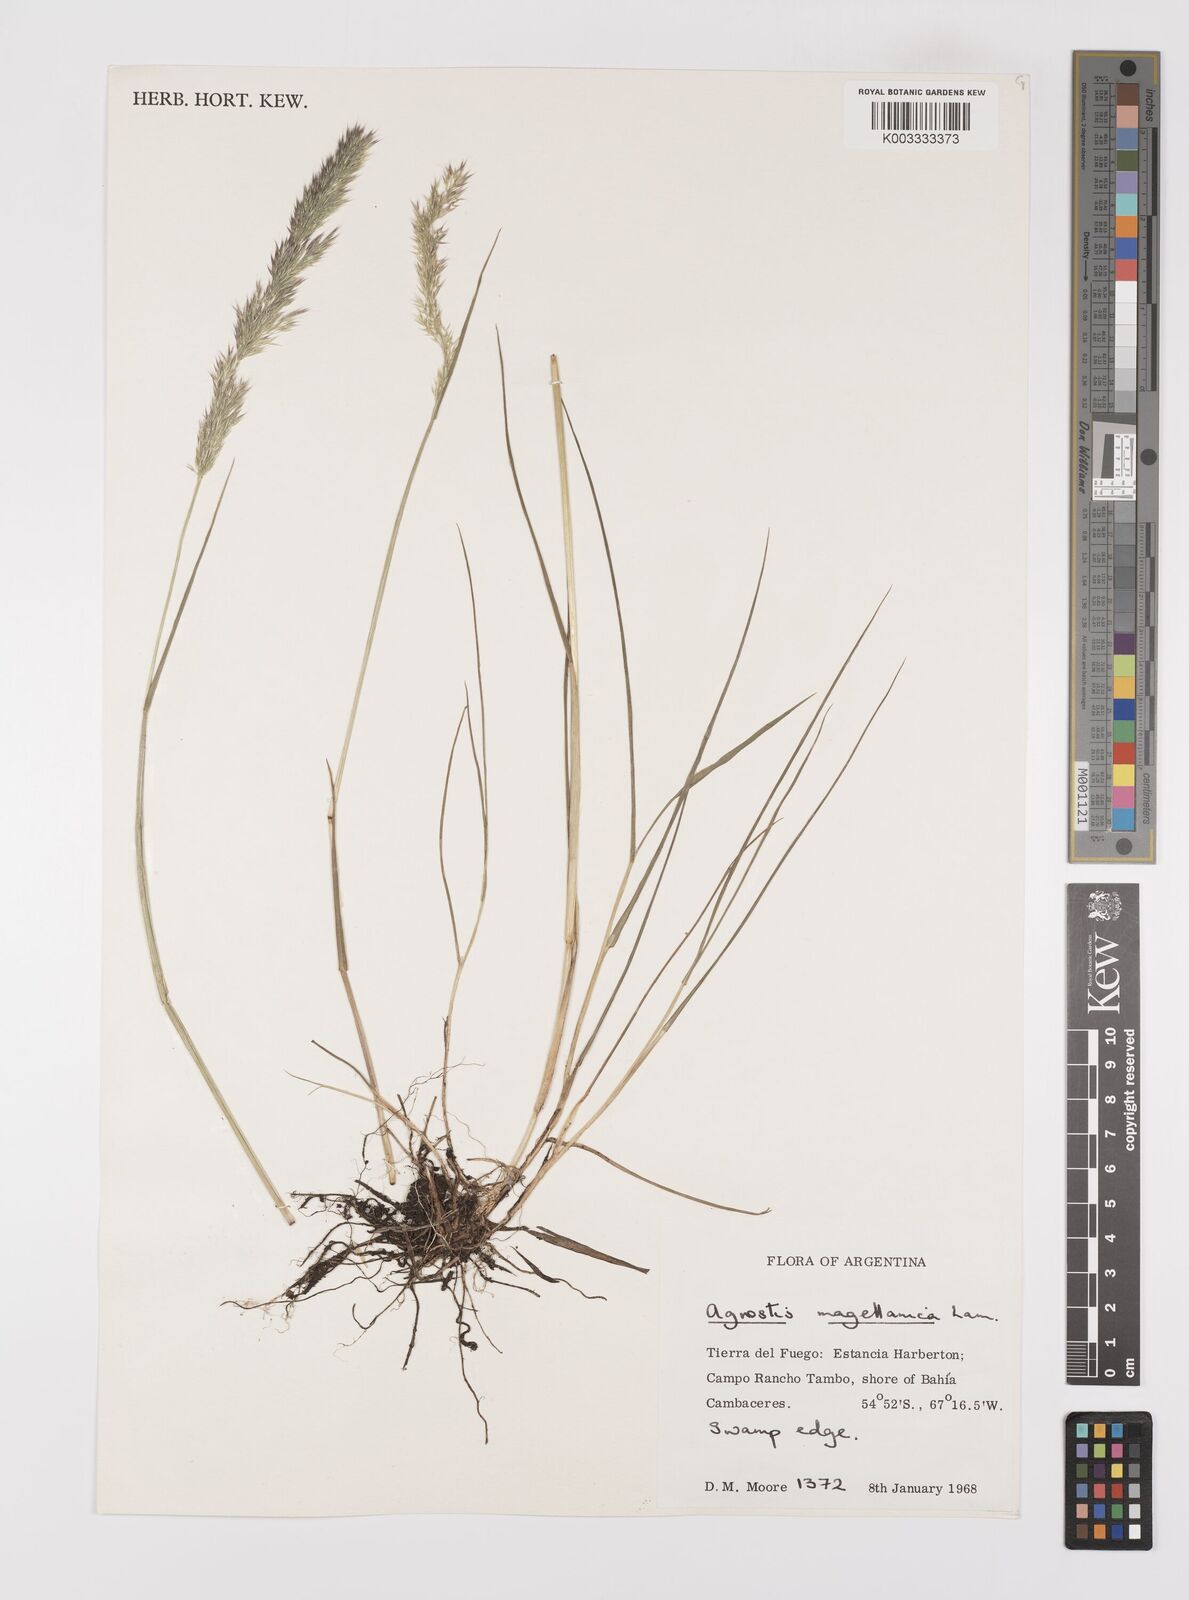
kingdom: Plantae
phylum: Tracheophyta
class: Liliopsida
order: Poales
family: Poaceae
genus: Polypogon
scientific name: Polypogon magellanicus
